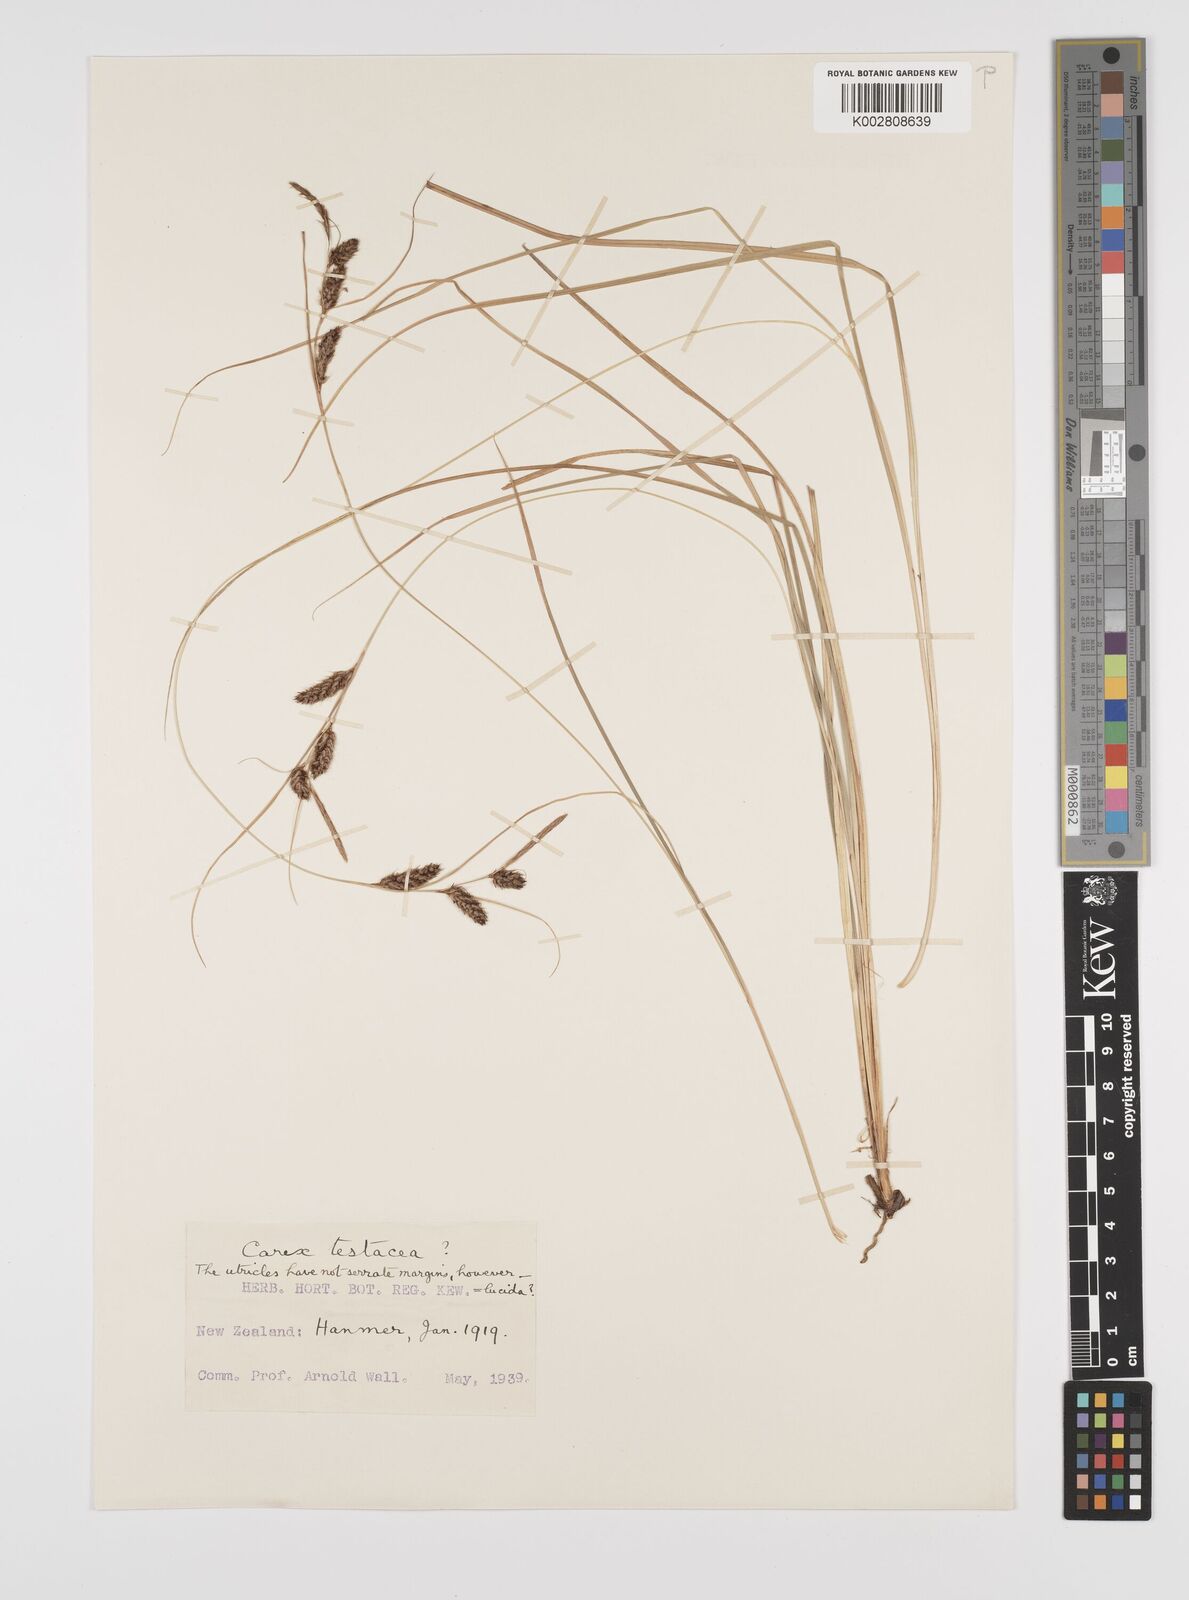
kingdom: Plantae
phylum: Tracheophyta
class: Liliopsida
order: Poales
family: Cyperaceae
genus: Carex
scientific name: Carex testacea
